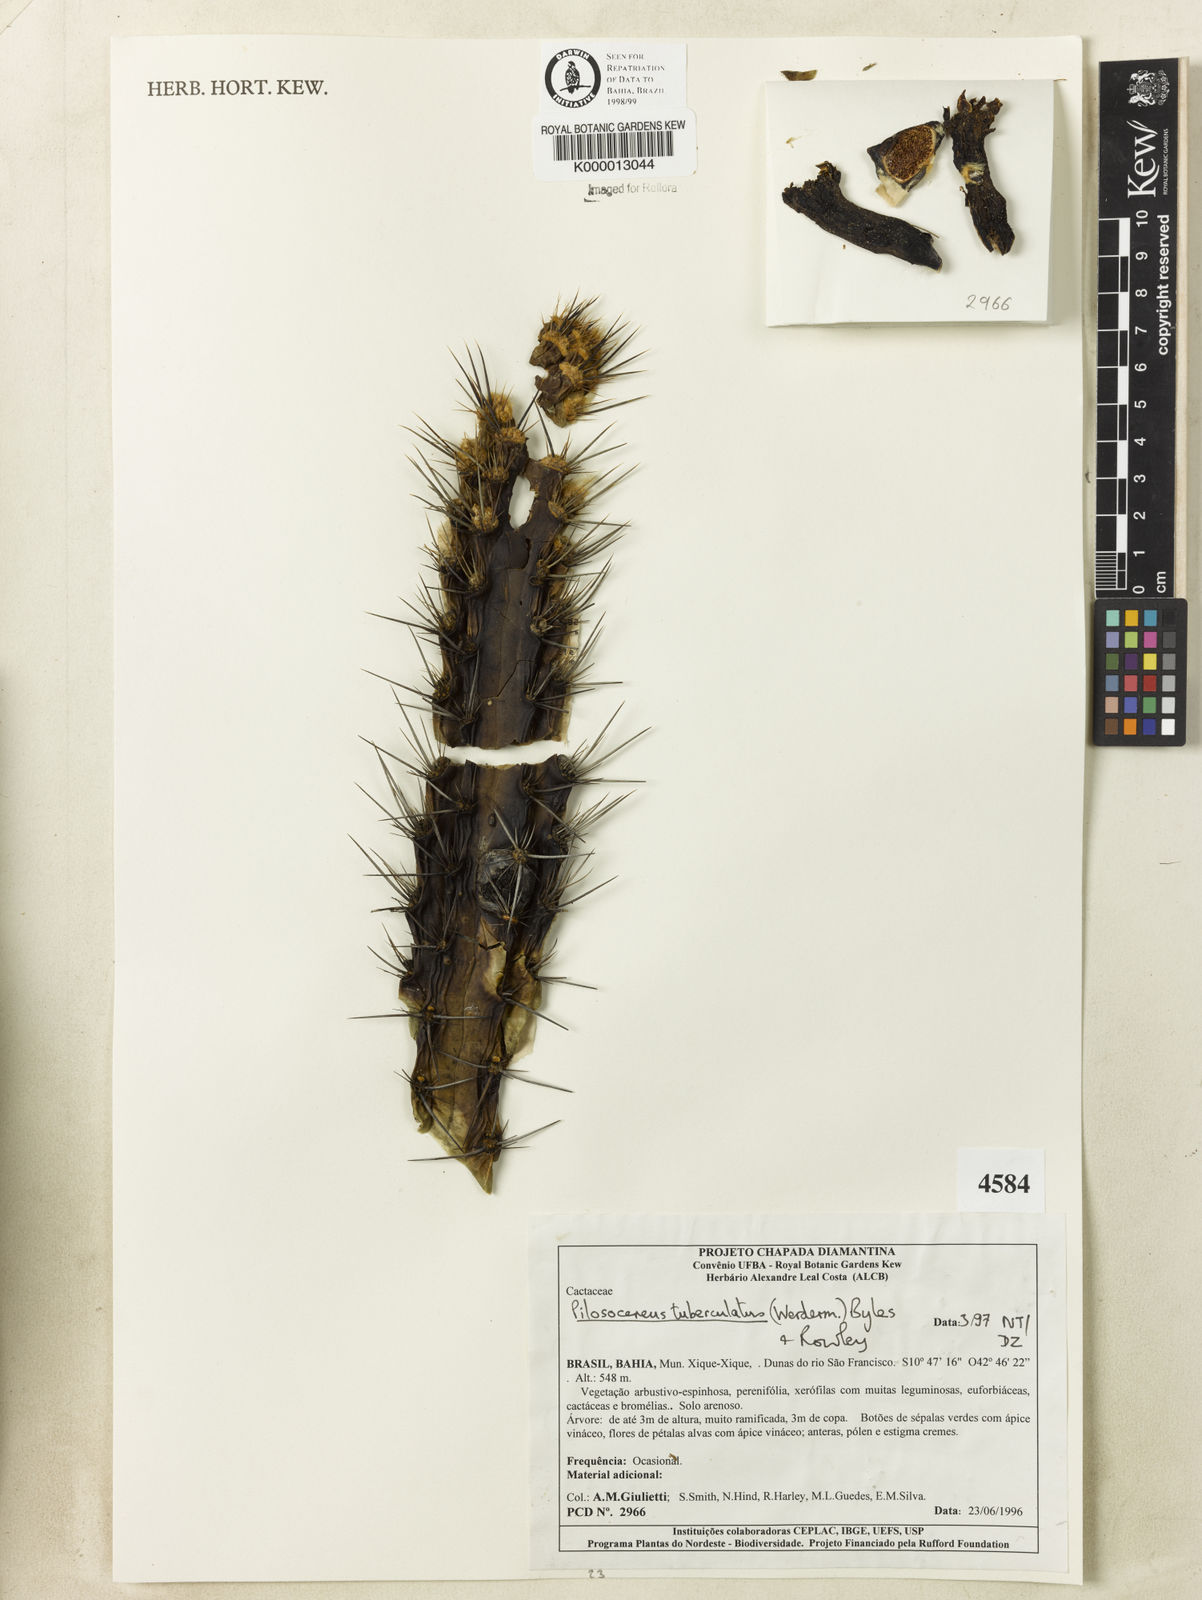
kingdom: Plantae
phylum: Tracheophyta
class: Magnoliopsida
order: Caryophyllales
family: Cactaceae
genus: Xiquexique
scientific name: Xiquexique tuberculatus
